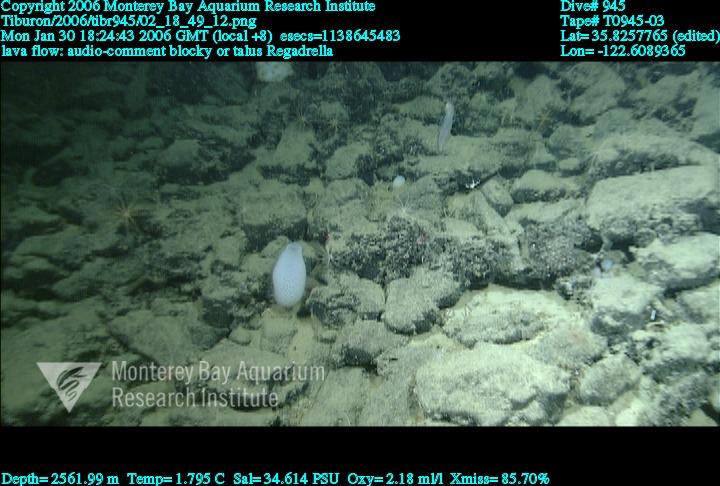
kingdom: Animalia
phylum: Porifera
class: Hexactinellida
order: Lyssacinosida
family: Euplectellidae
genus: Regadrella
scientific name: Regadrella
